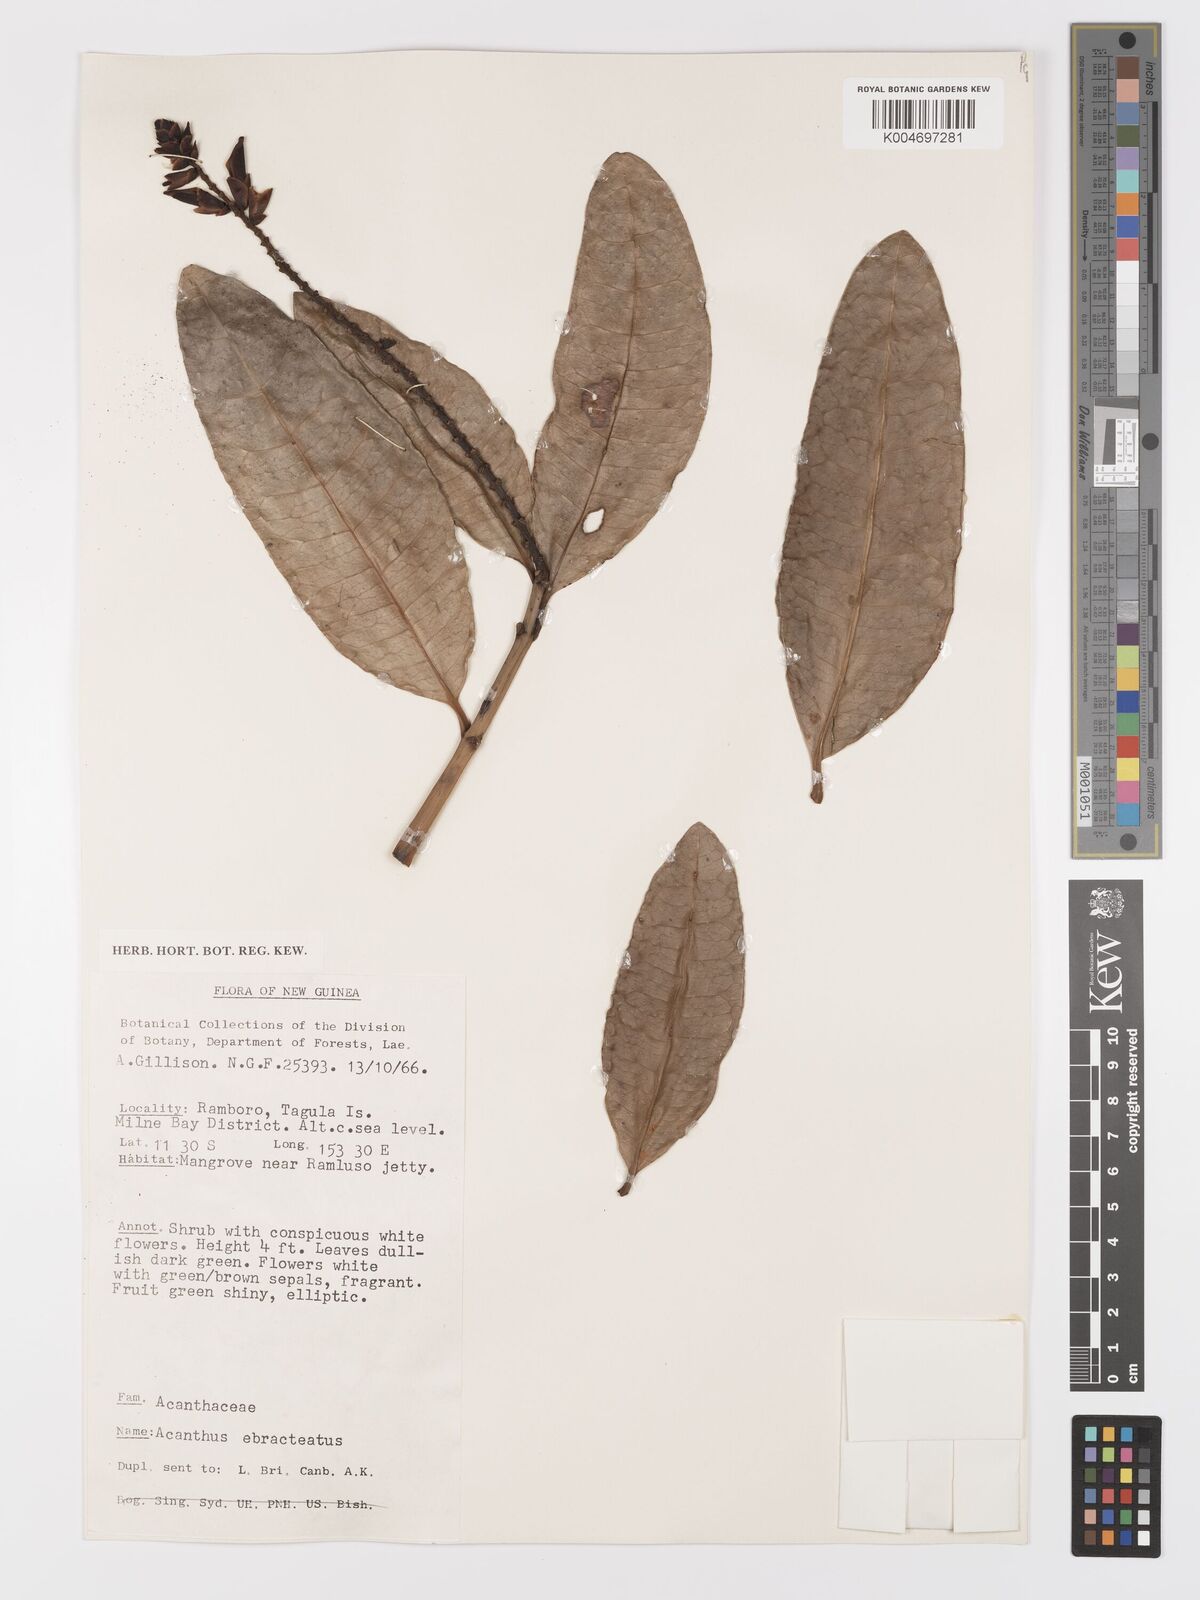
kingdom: Plantae
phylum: Tracheophyta
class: Magnoliopsida
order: Lamiales
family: Acanthaceae
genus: Acanthus
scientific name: Acanthus ebracteatus
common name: Acanthus
